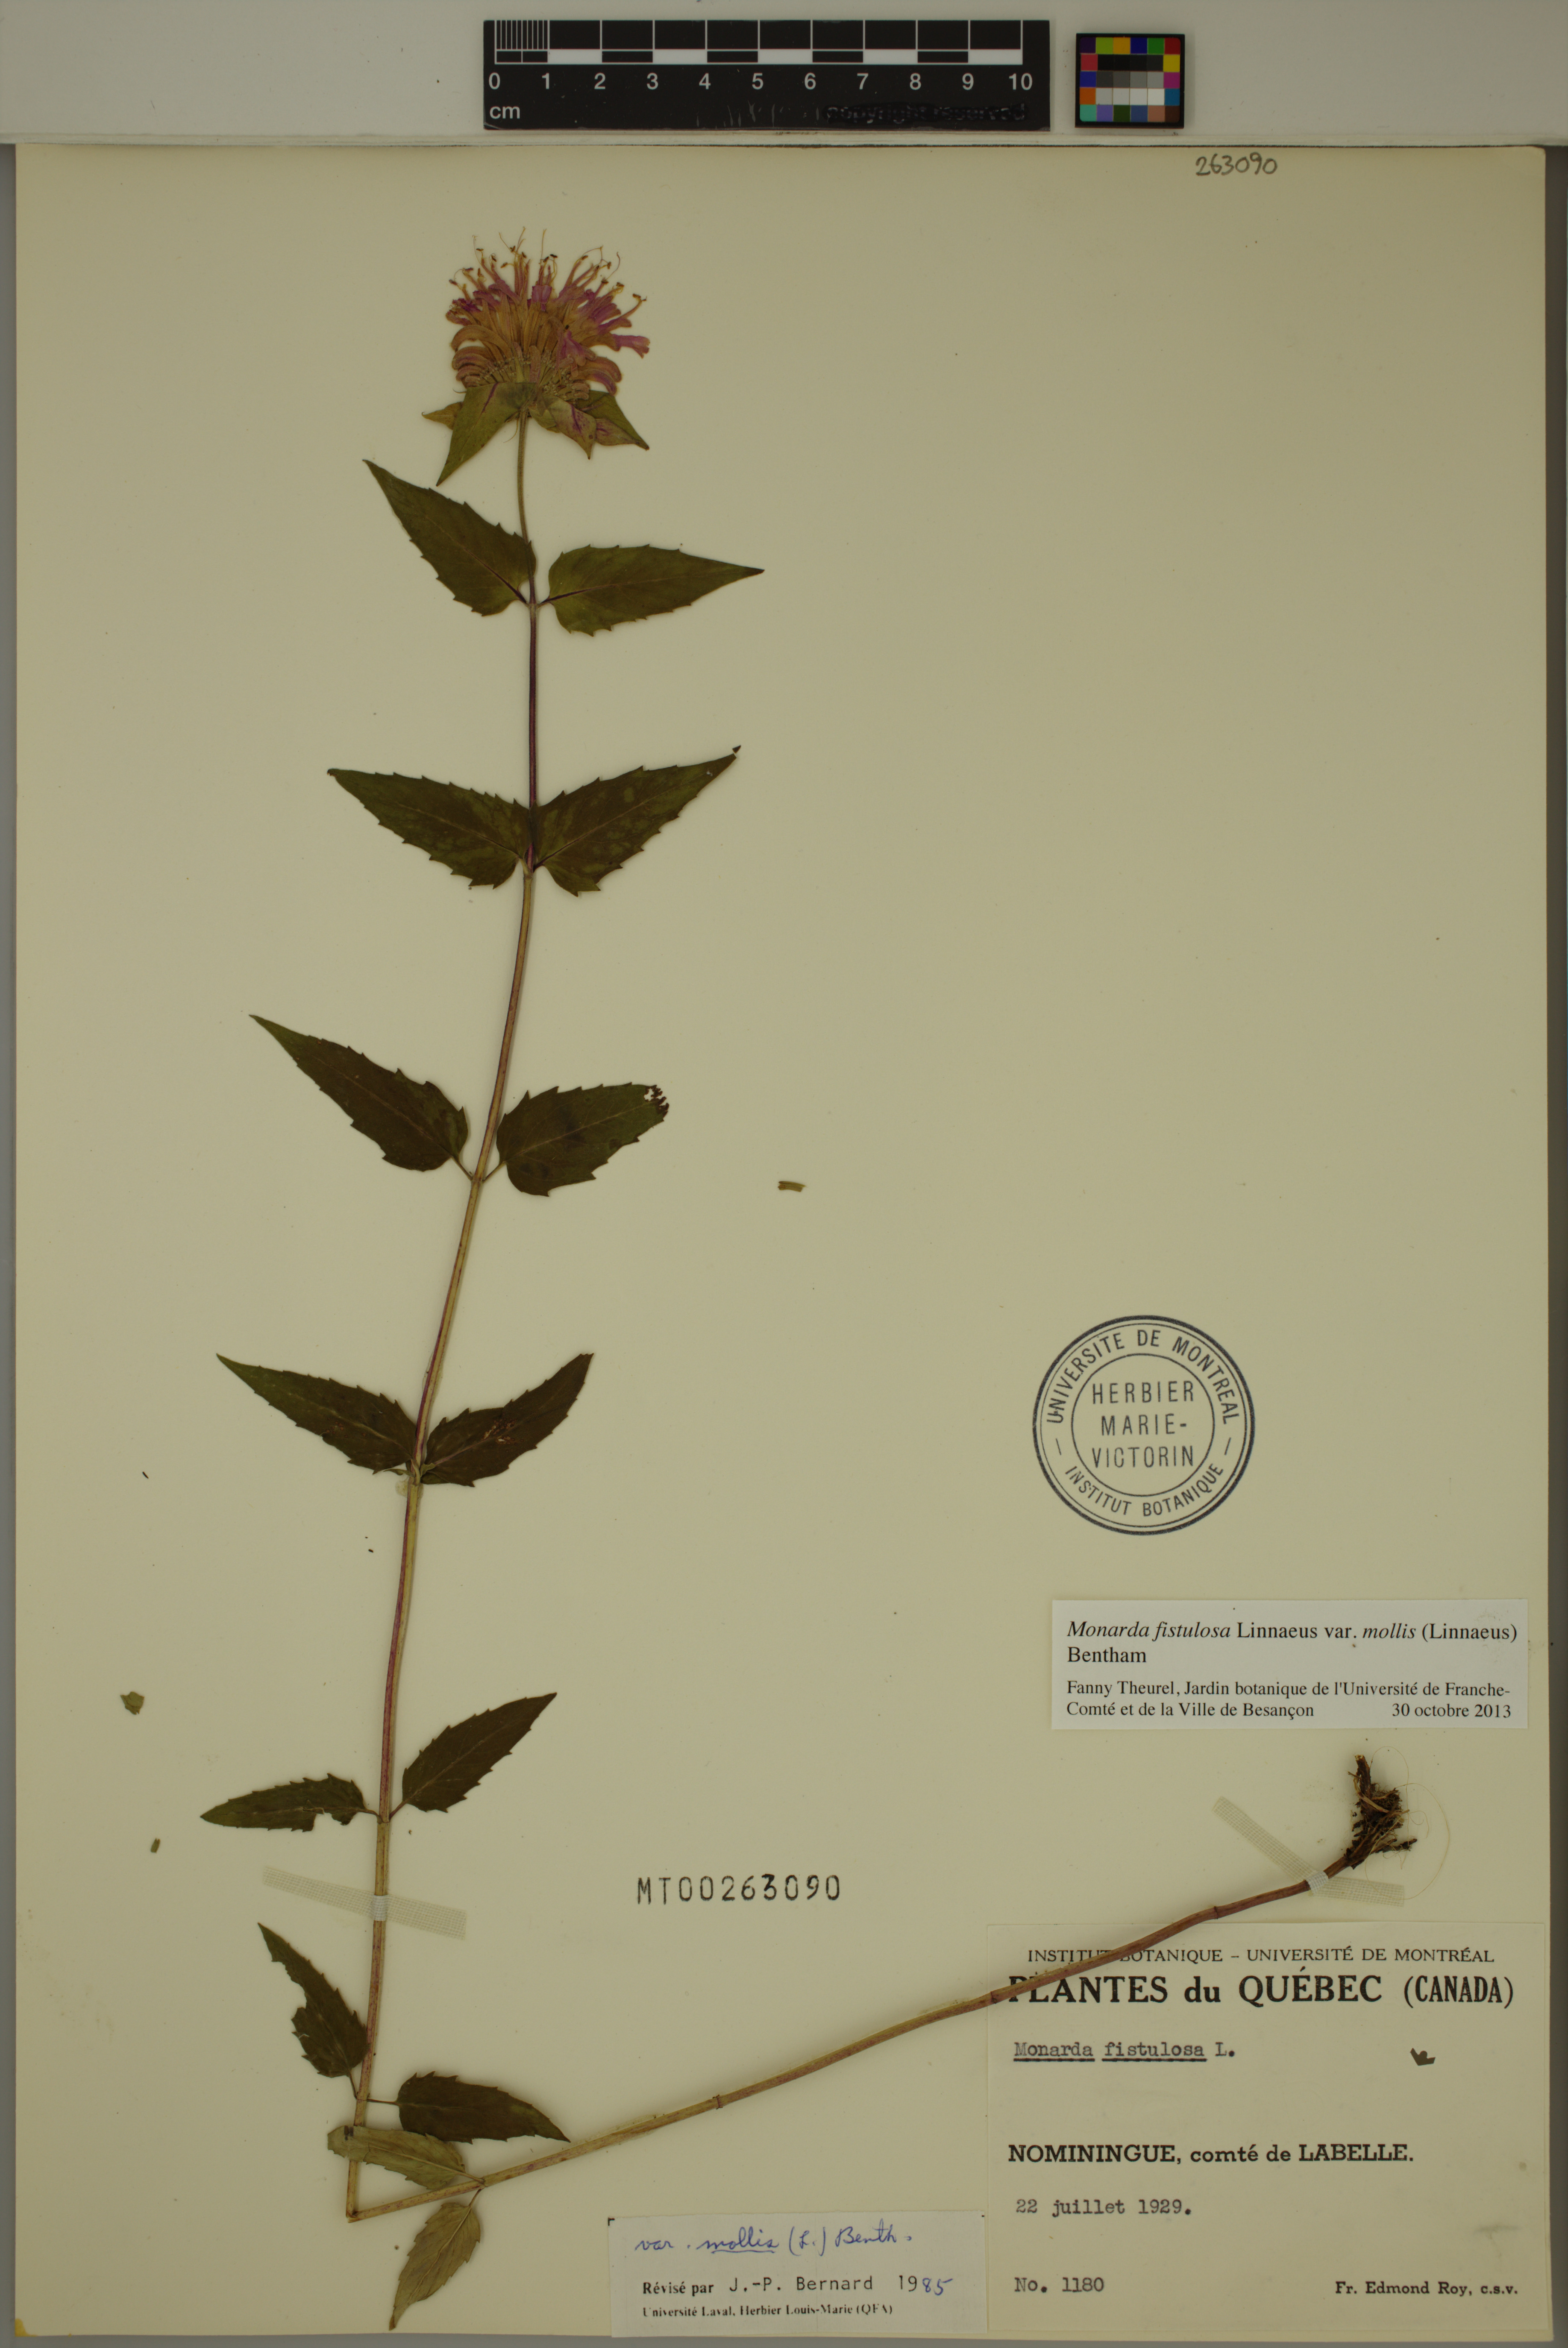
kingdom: Plantae
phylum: Tracheophyta
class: Magnoliopsida
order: Lamiales
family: Lamiaceae
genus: Monarda
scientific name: Monarda fistulosa
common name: Purple beebalm
